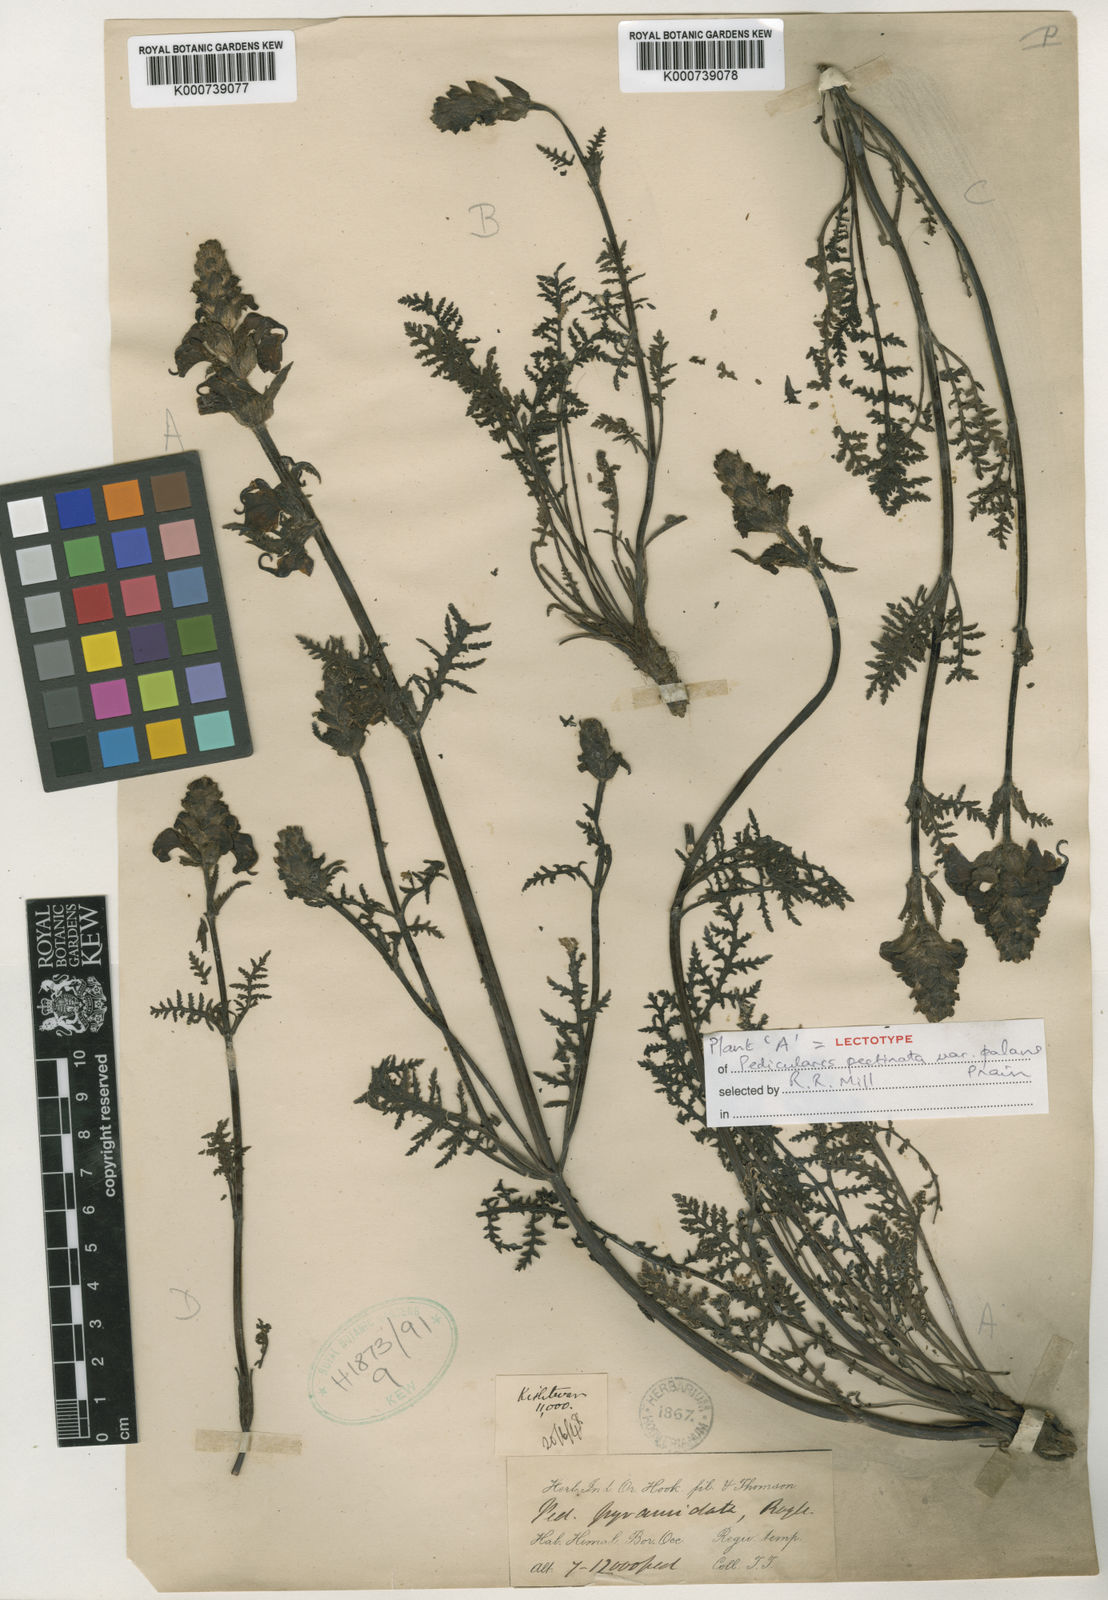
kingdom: Plantae
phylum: Tracheophyta
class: Magnoliopsida
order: Lamiales
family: Orobanchaceae
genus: Pedicularis
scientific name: Pedicularis
